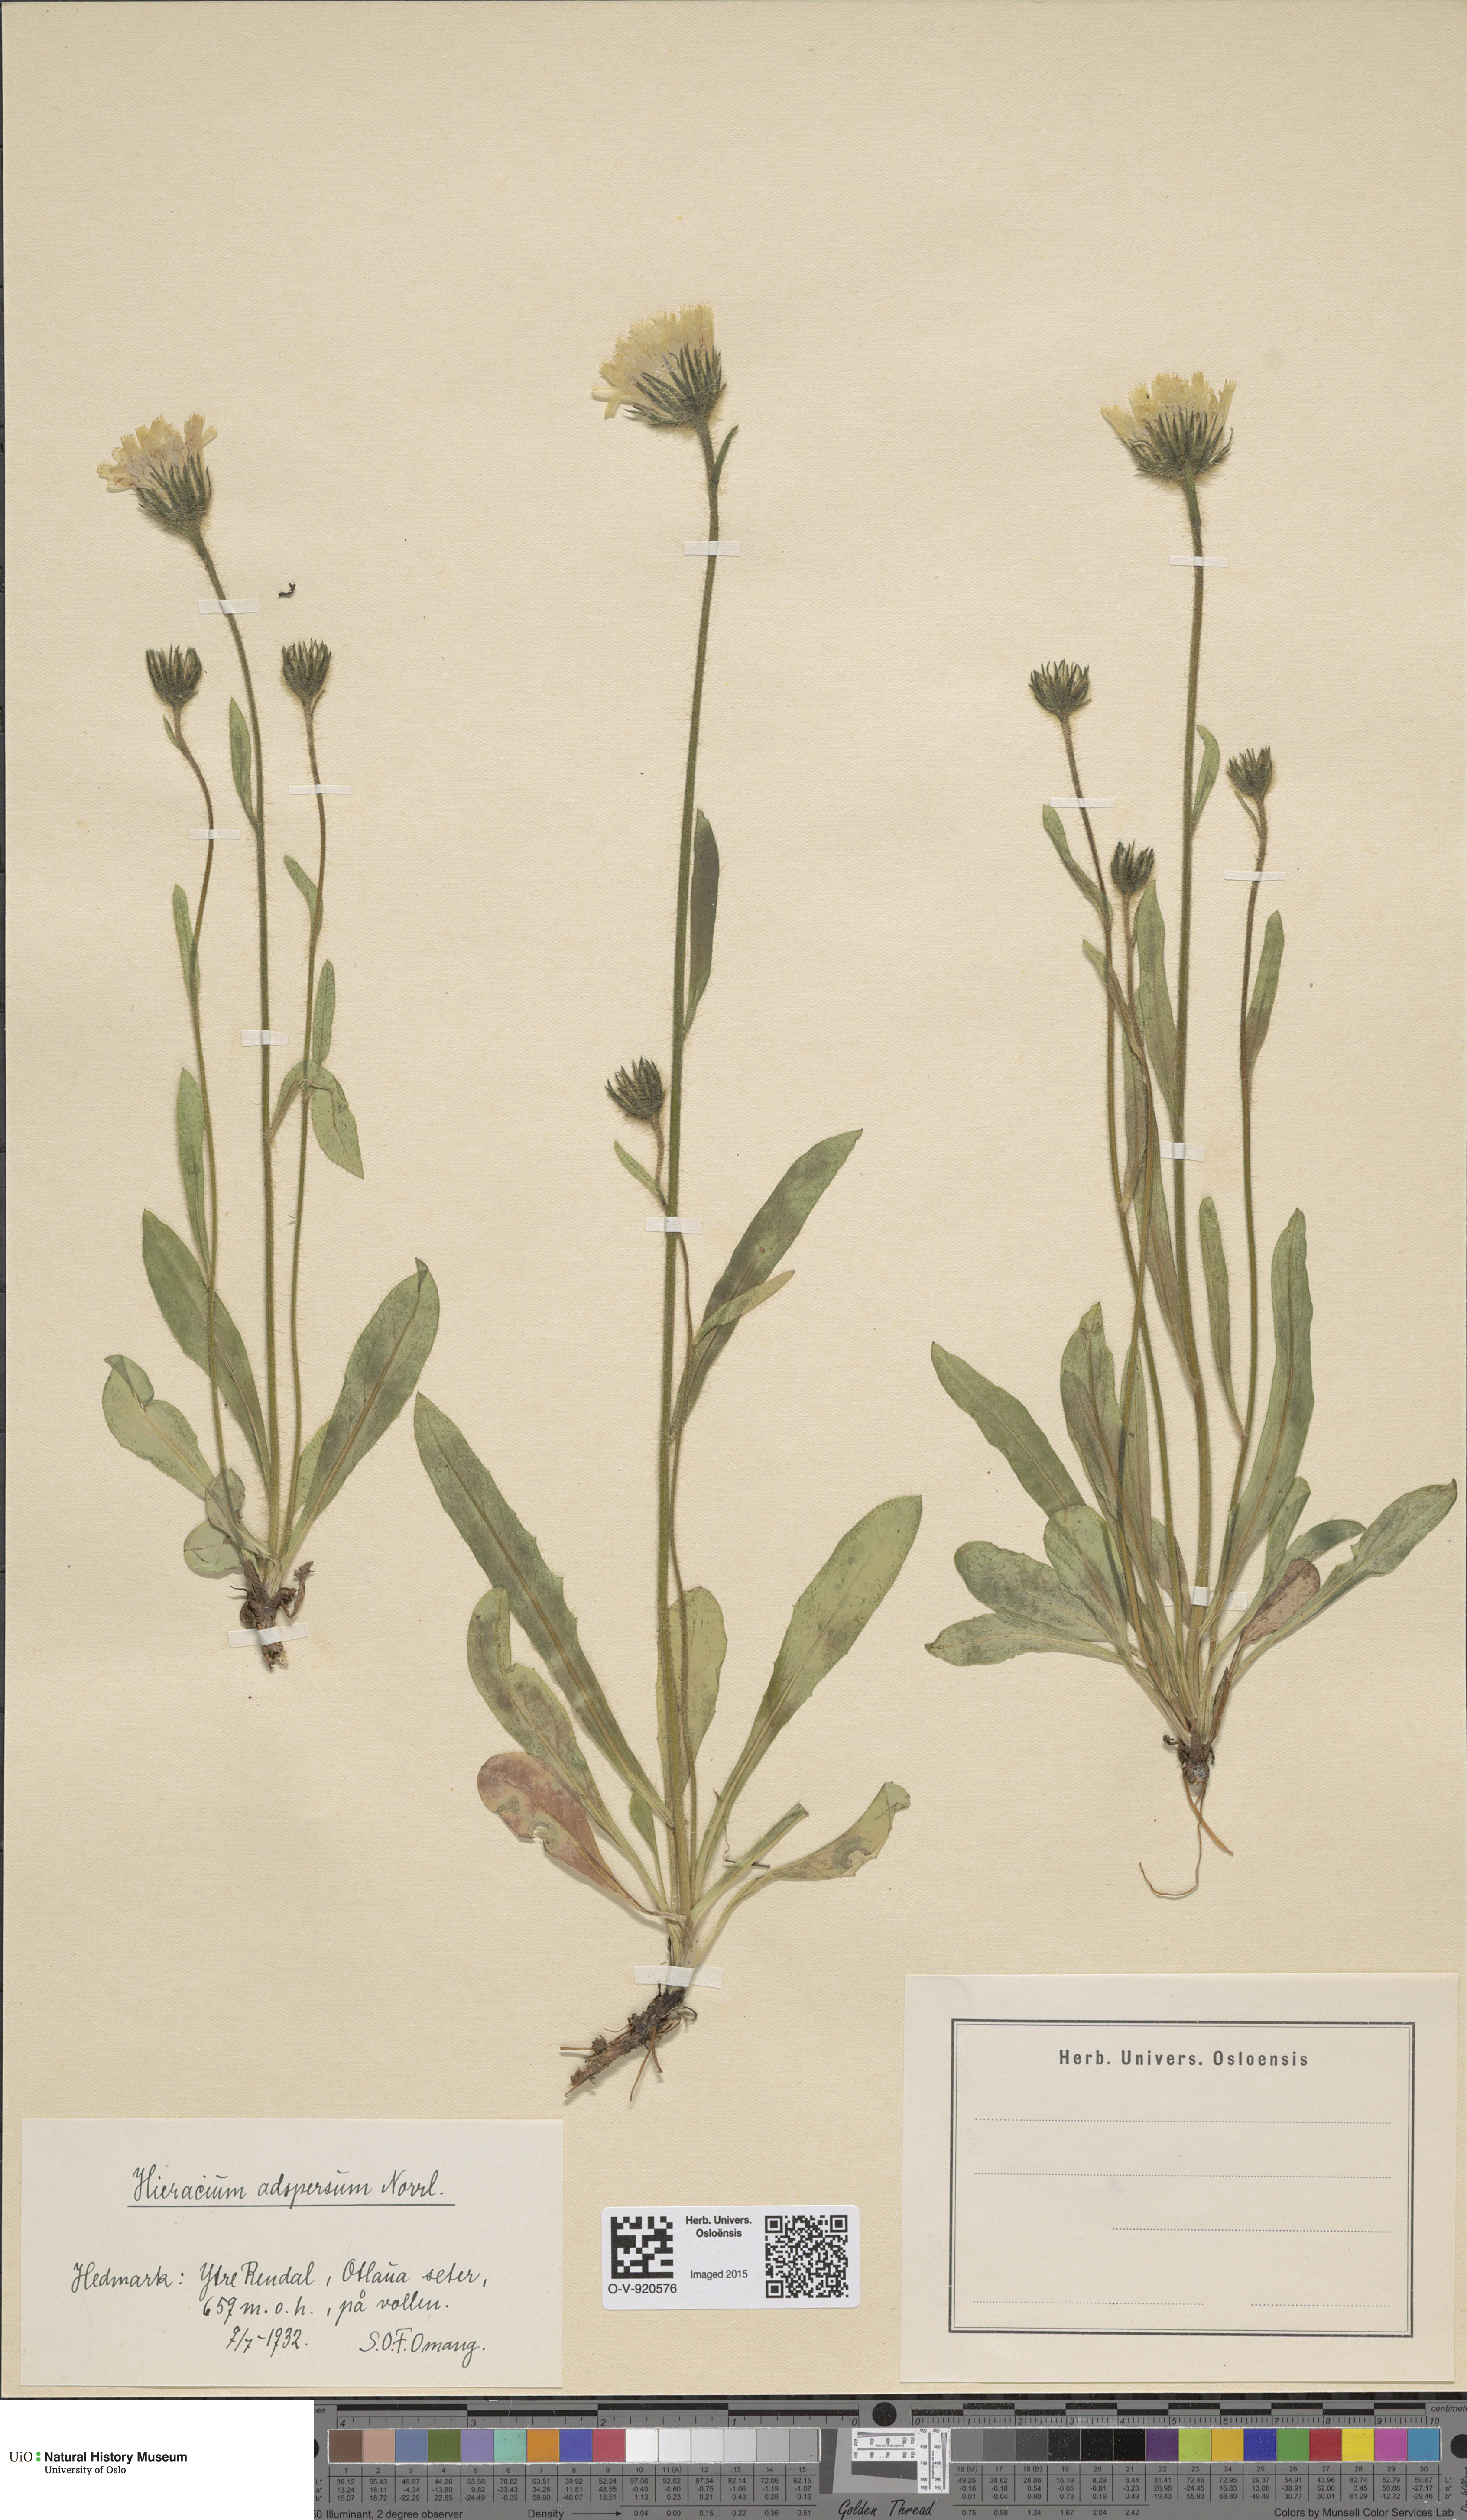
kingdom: Plantae
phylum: Tracheophyta
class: Magnoliopsida
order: Asterales
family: Asteraceae
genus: Hieracium
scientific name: Hieracium alpinum
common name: Alpine hawkweed
